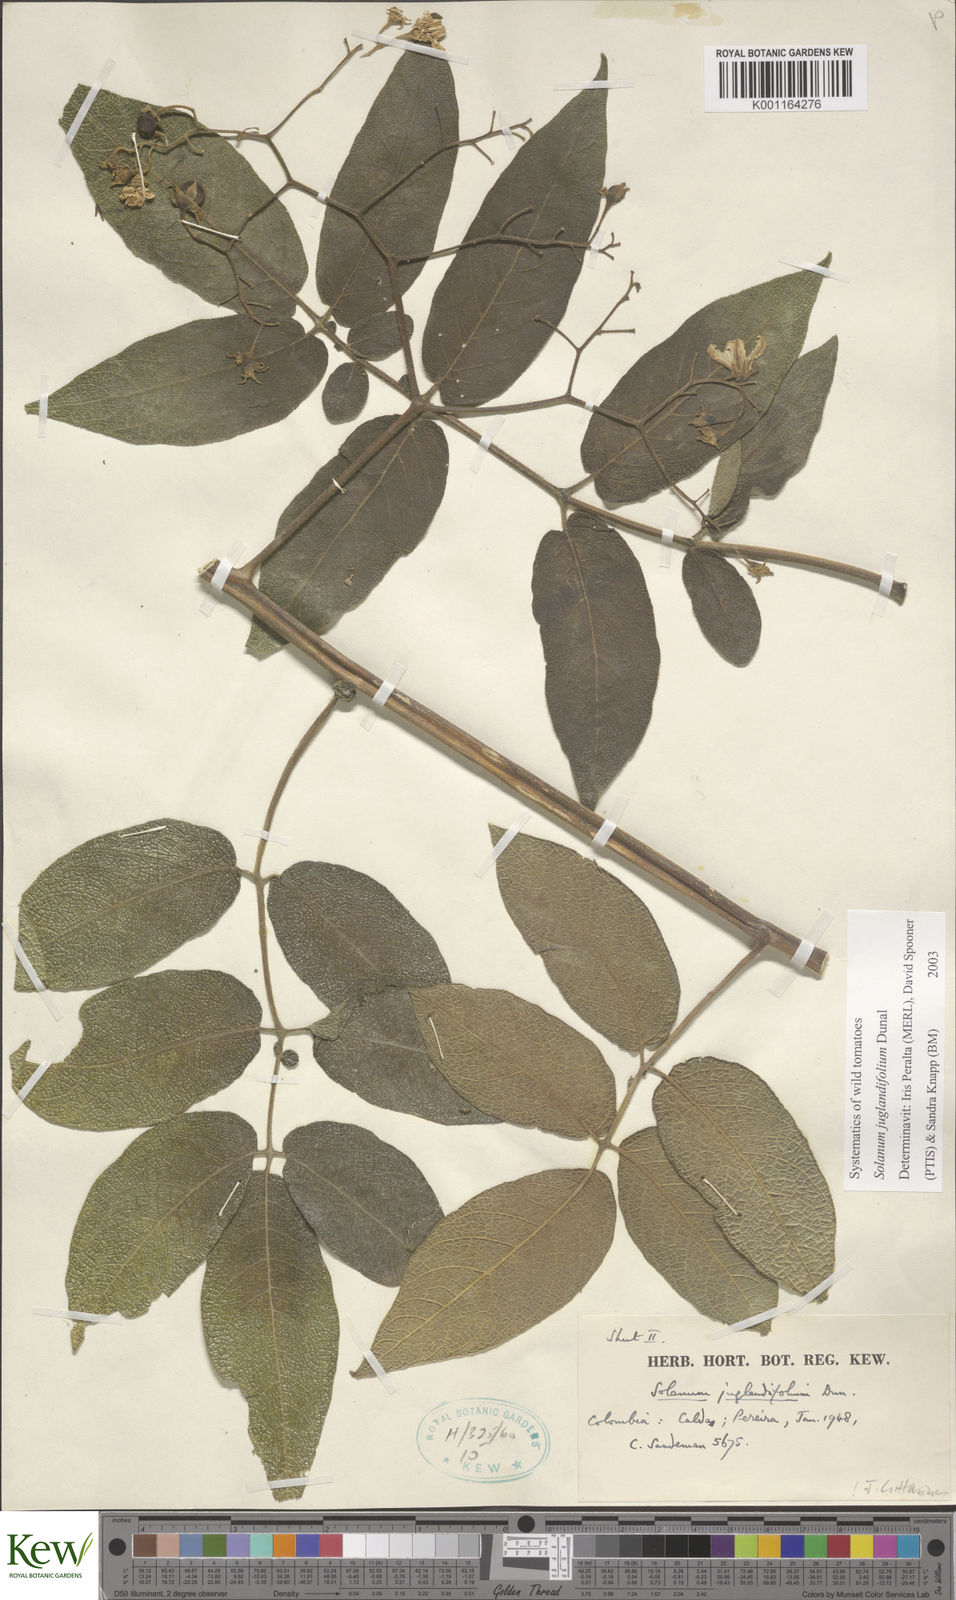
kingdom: Plantae
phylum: Tracheophyta
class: Magnoliopsida
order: Solanales
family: Solanaceae
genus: Solanum
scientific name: Solanum juglandifolium
